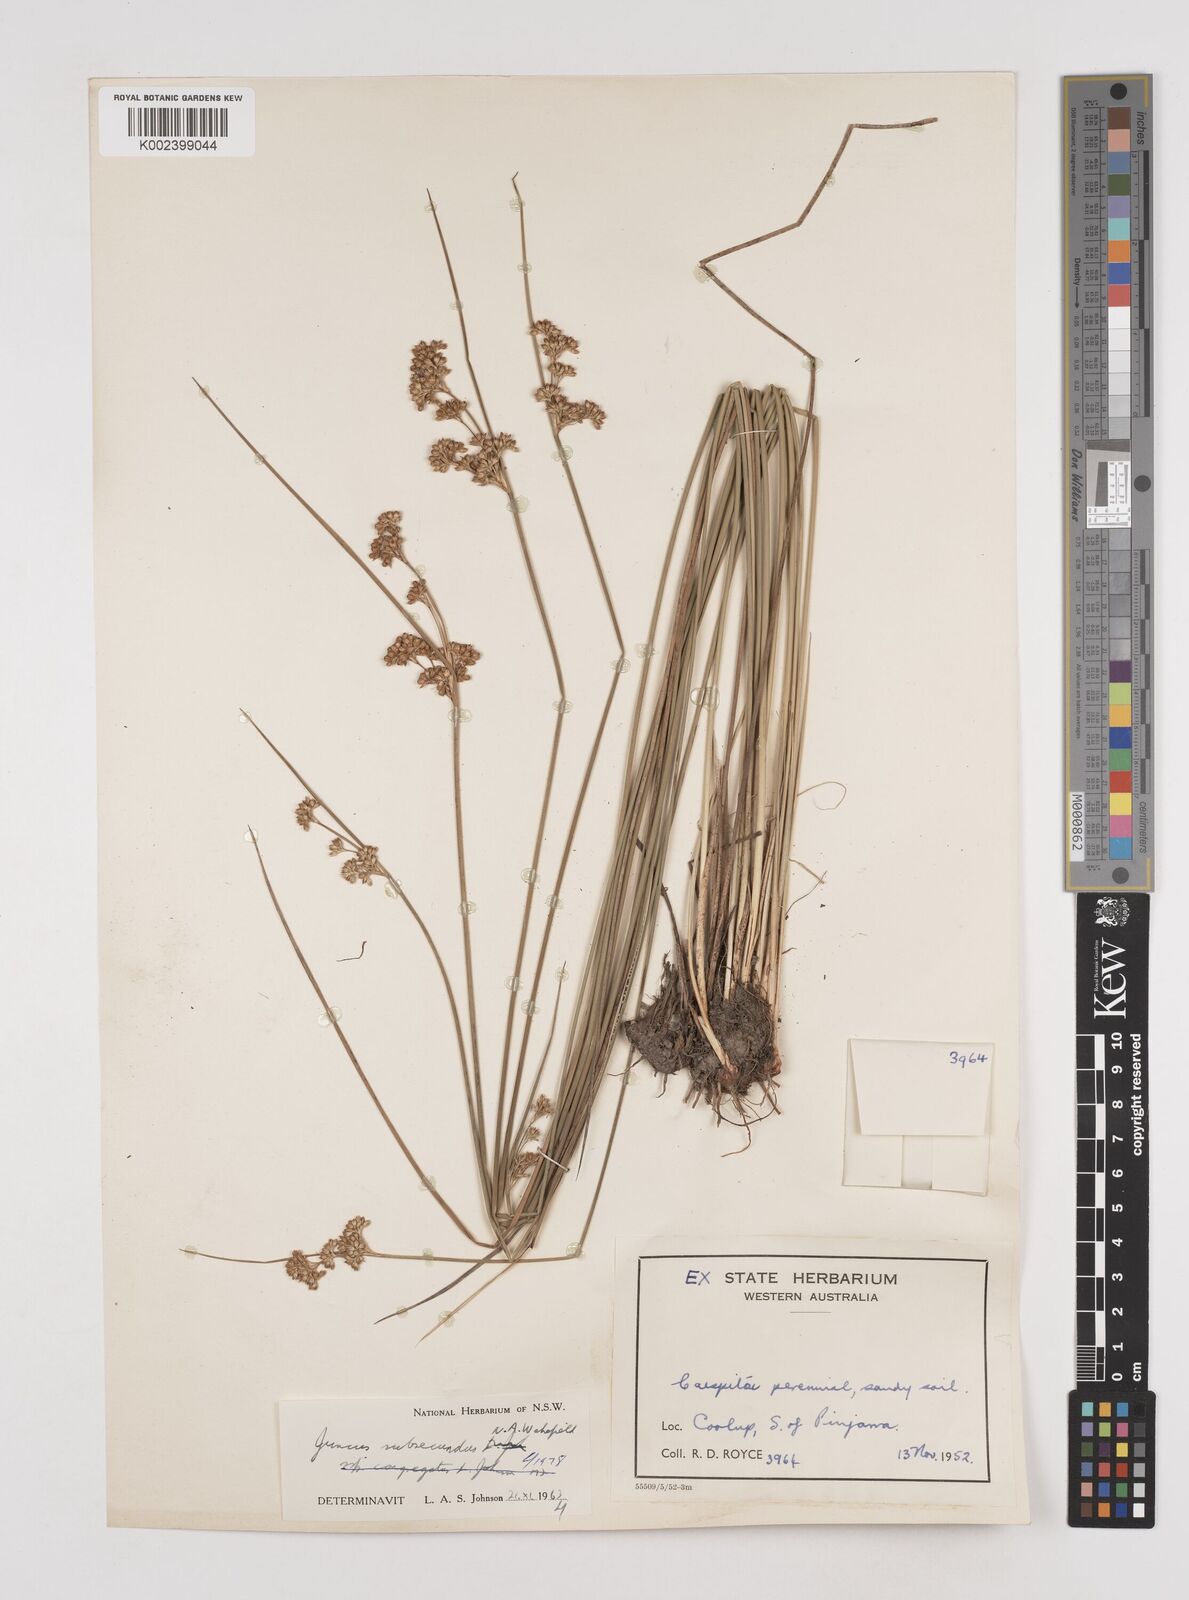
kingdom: Plantae
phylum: Tracheophyta
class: Liliopsida
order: Poales
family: Juncaceae
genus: Juncus
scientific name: Juncus subsecundus
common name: Fingered rush
